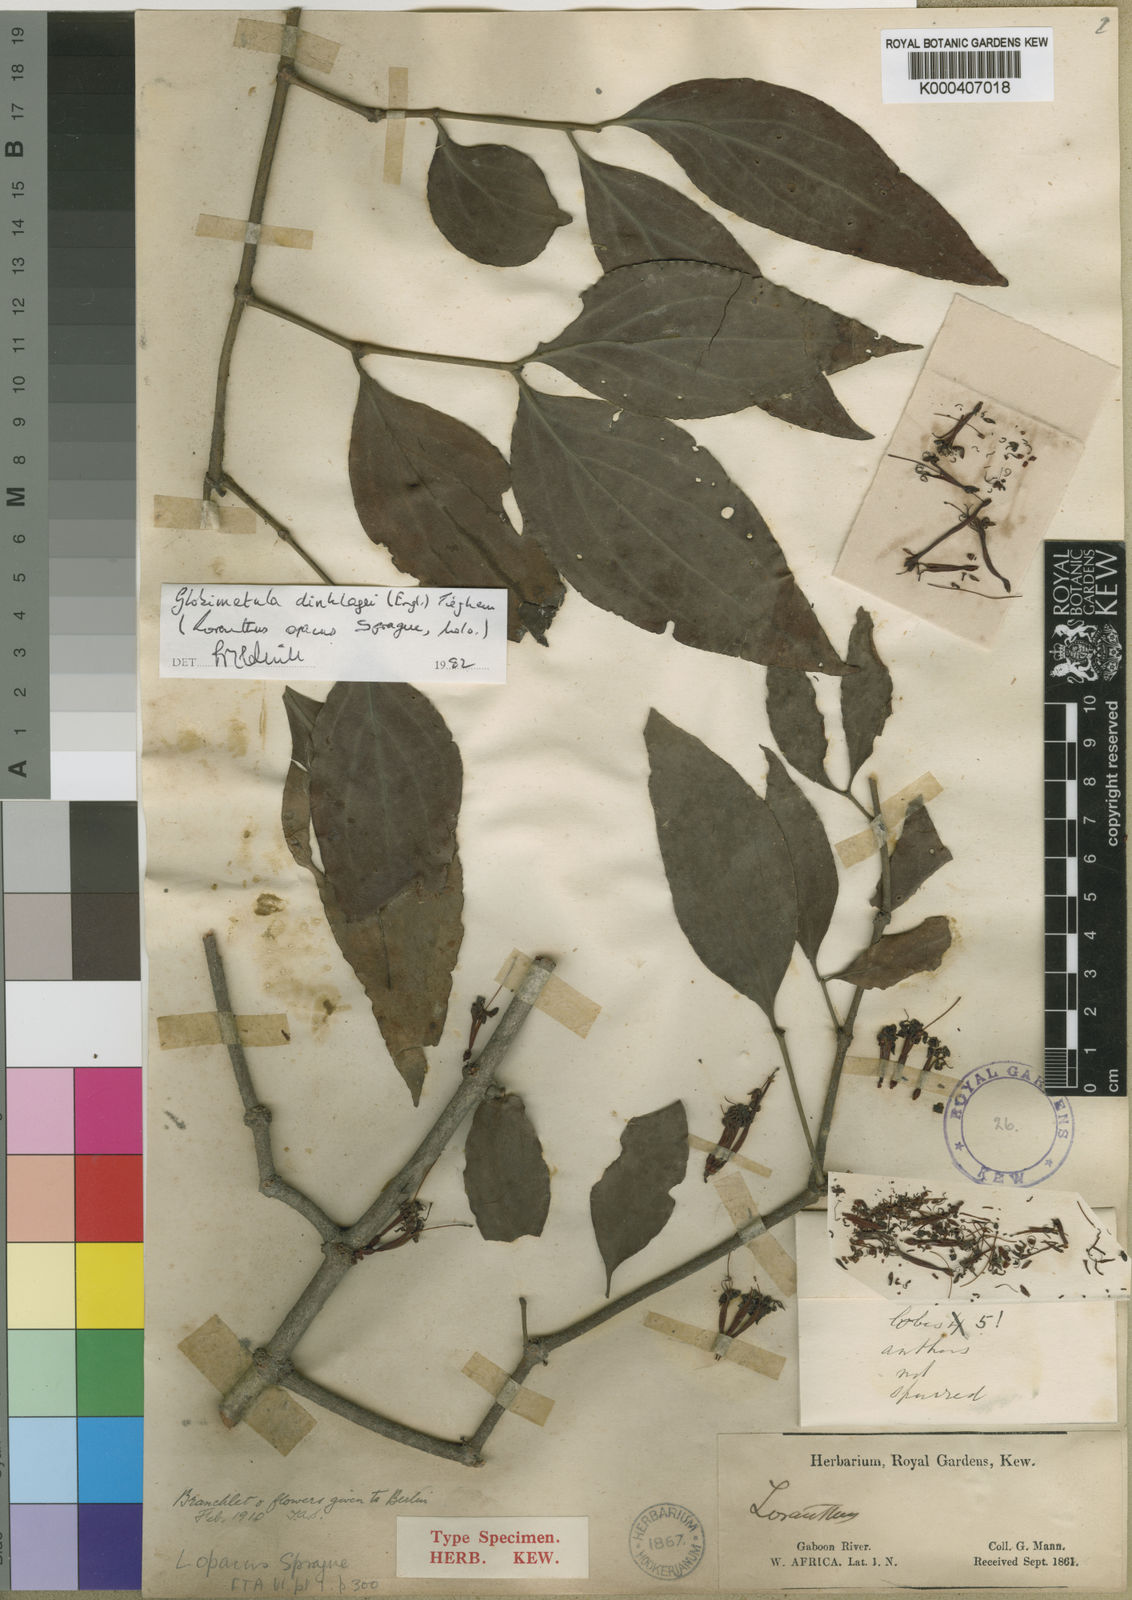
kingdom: Plantae
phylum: Tracheophyta
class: Magnoliopsida
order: Santalales
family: Loranthaceae
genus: Globimetula
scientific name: Globimetula dinklagei
